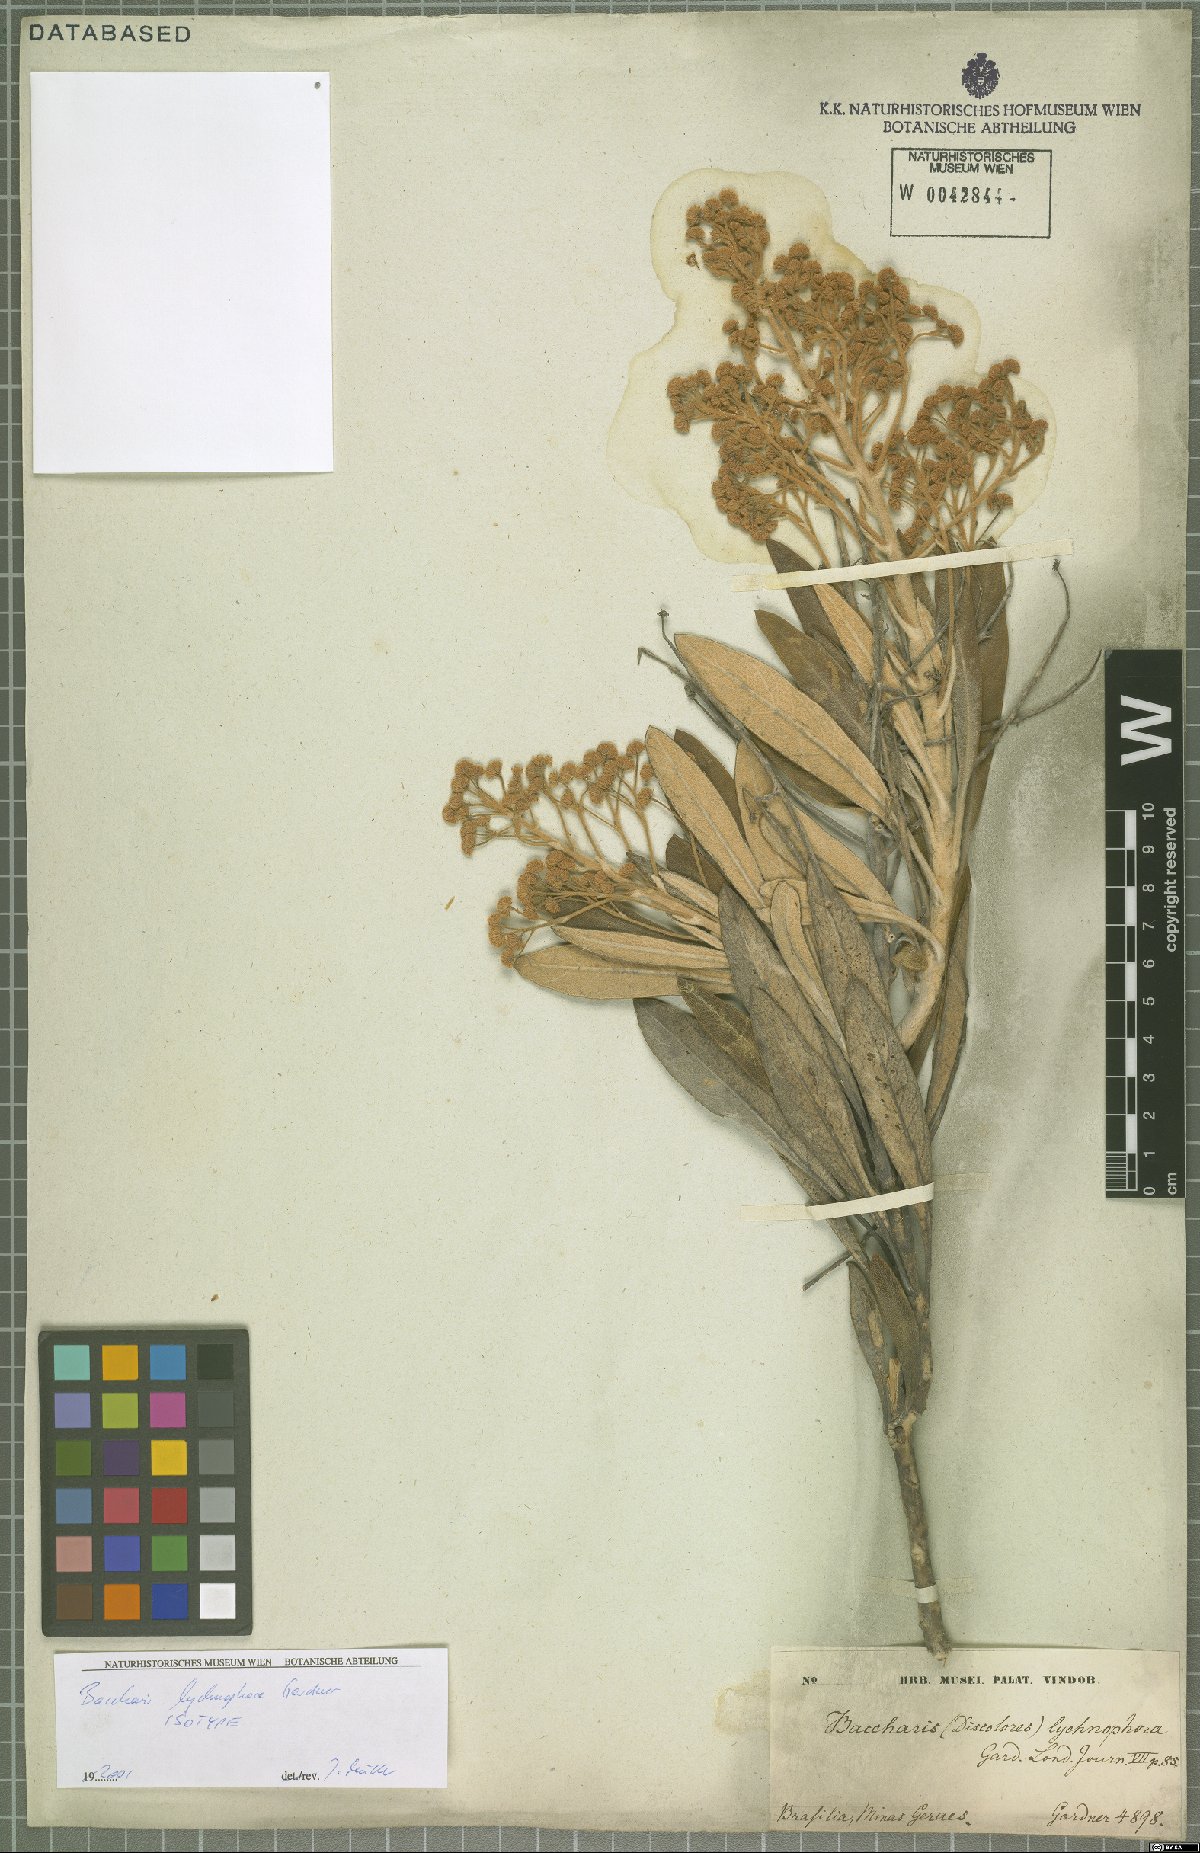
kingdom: Plantae
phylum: Tracheophyta
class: Magnoliopsida
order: Asterales
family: Asteraceae
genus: Baccharis
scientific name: Baccharis lychnophora
